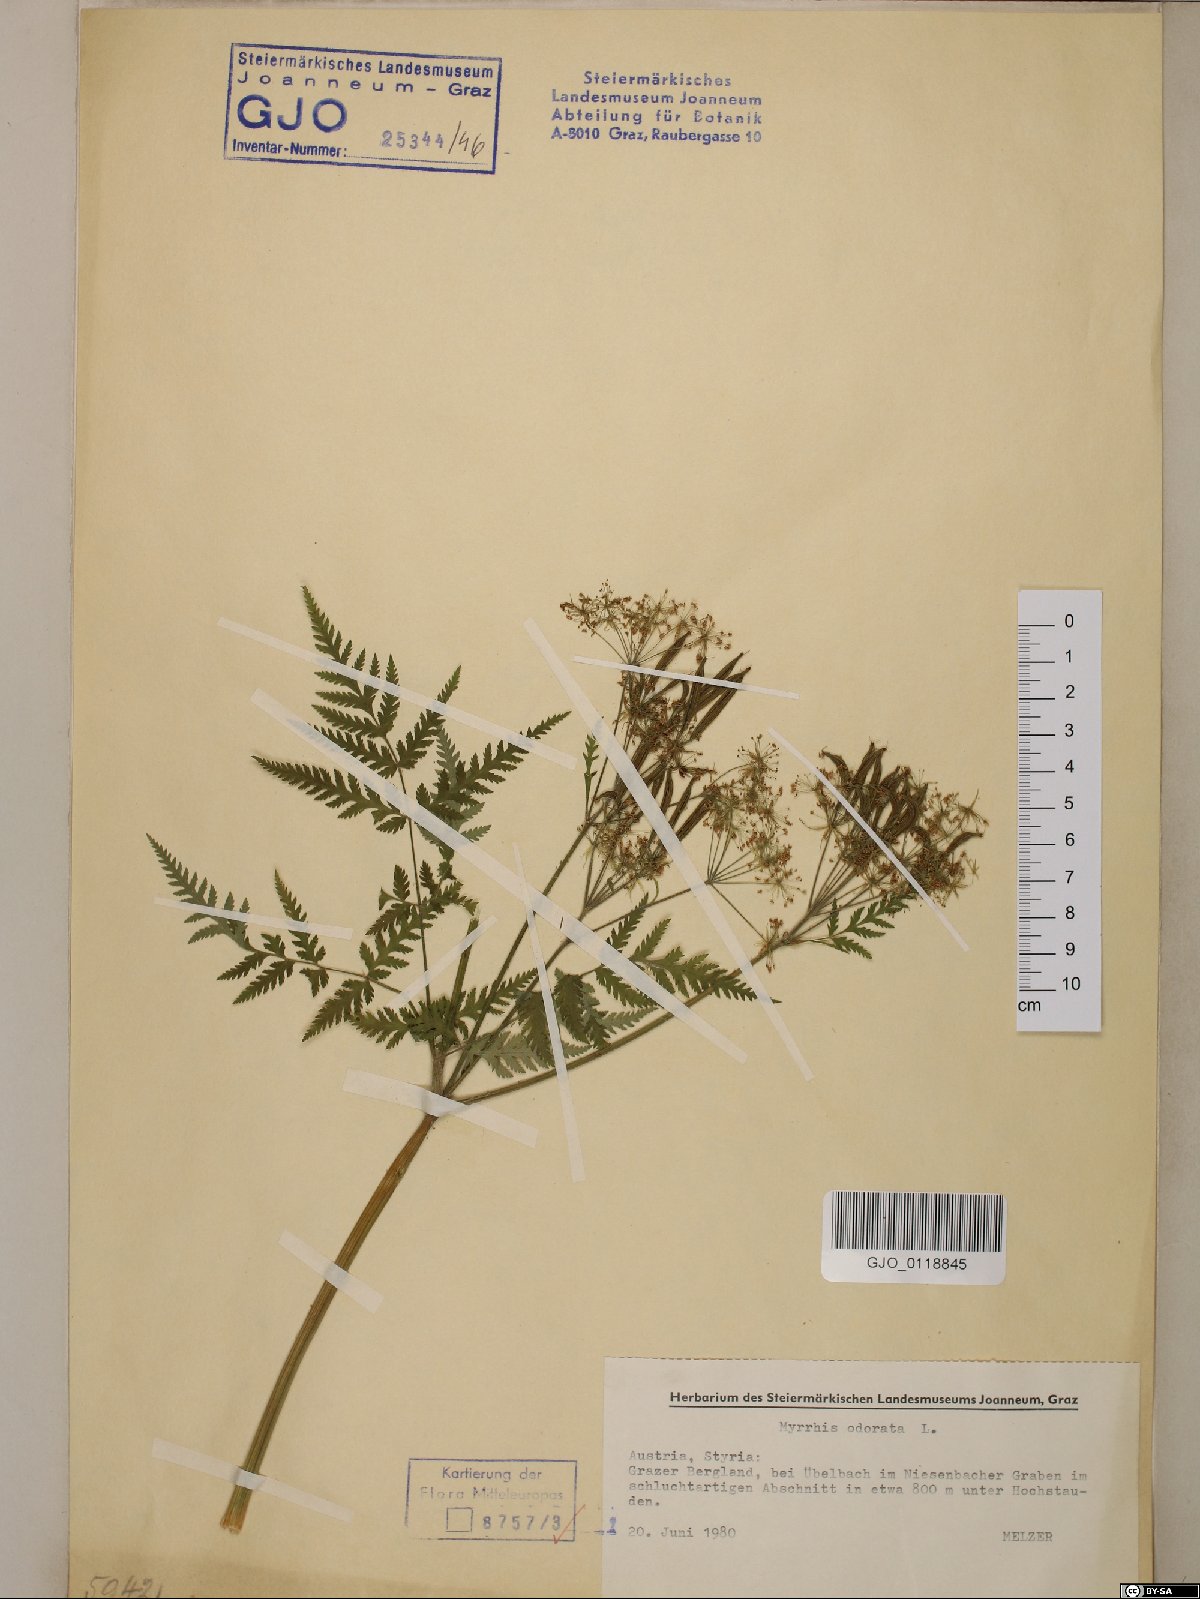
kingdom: Plantae
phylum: Tracheophyta
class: Magnoliopsida
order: Apiales
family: Apiaceae
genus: Myrrhis
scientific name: Myrrhis odorata
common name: Sweet cicely
